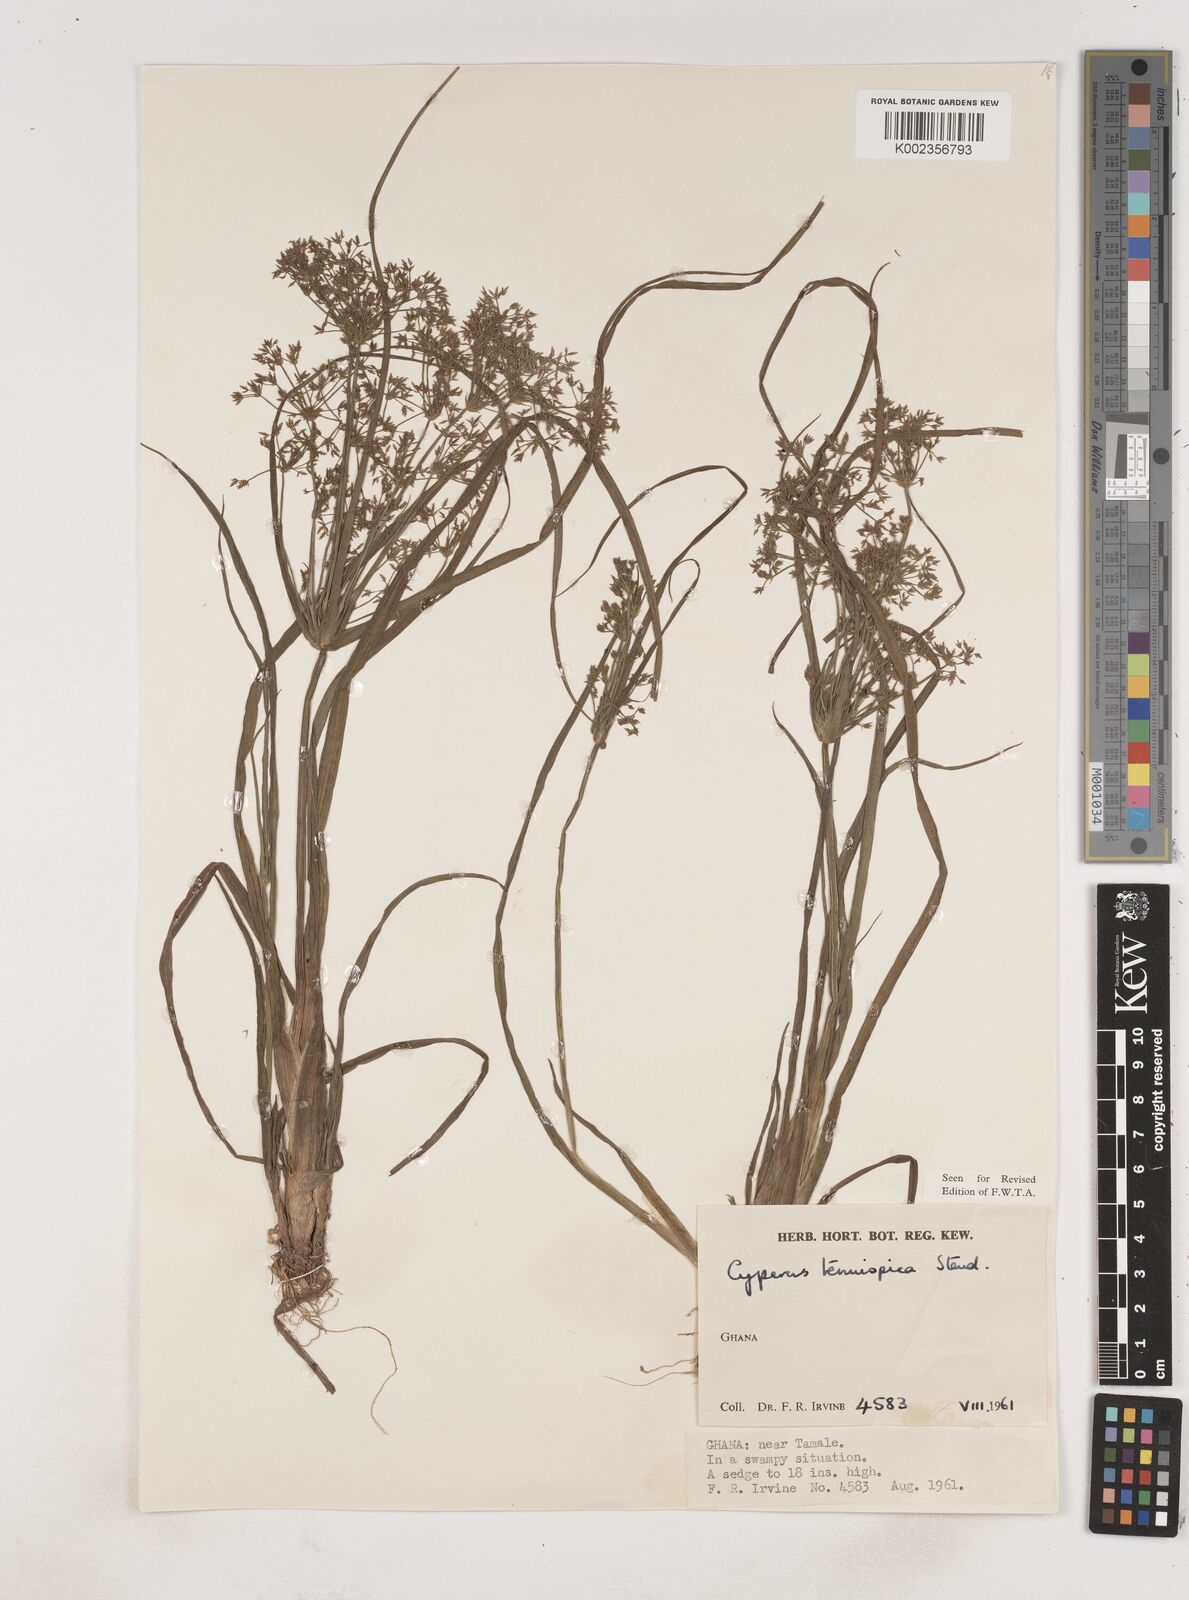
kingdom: Plantae
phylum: Tracheophyta
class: Liliopsida
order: Poales
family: Cyperaceae
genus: Cyperus
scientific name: Cyperus tenuispica
